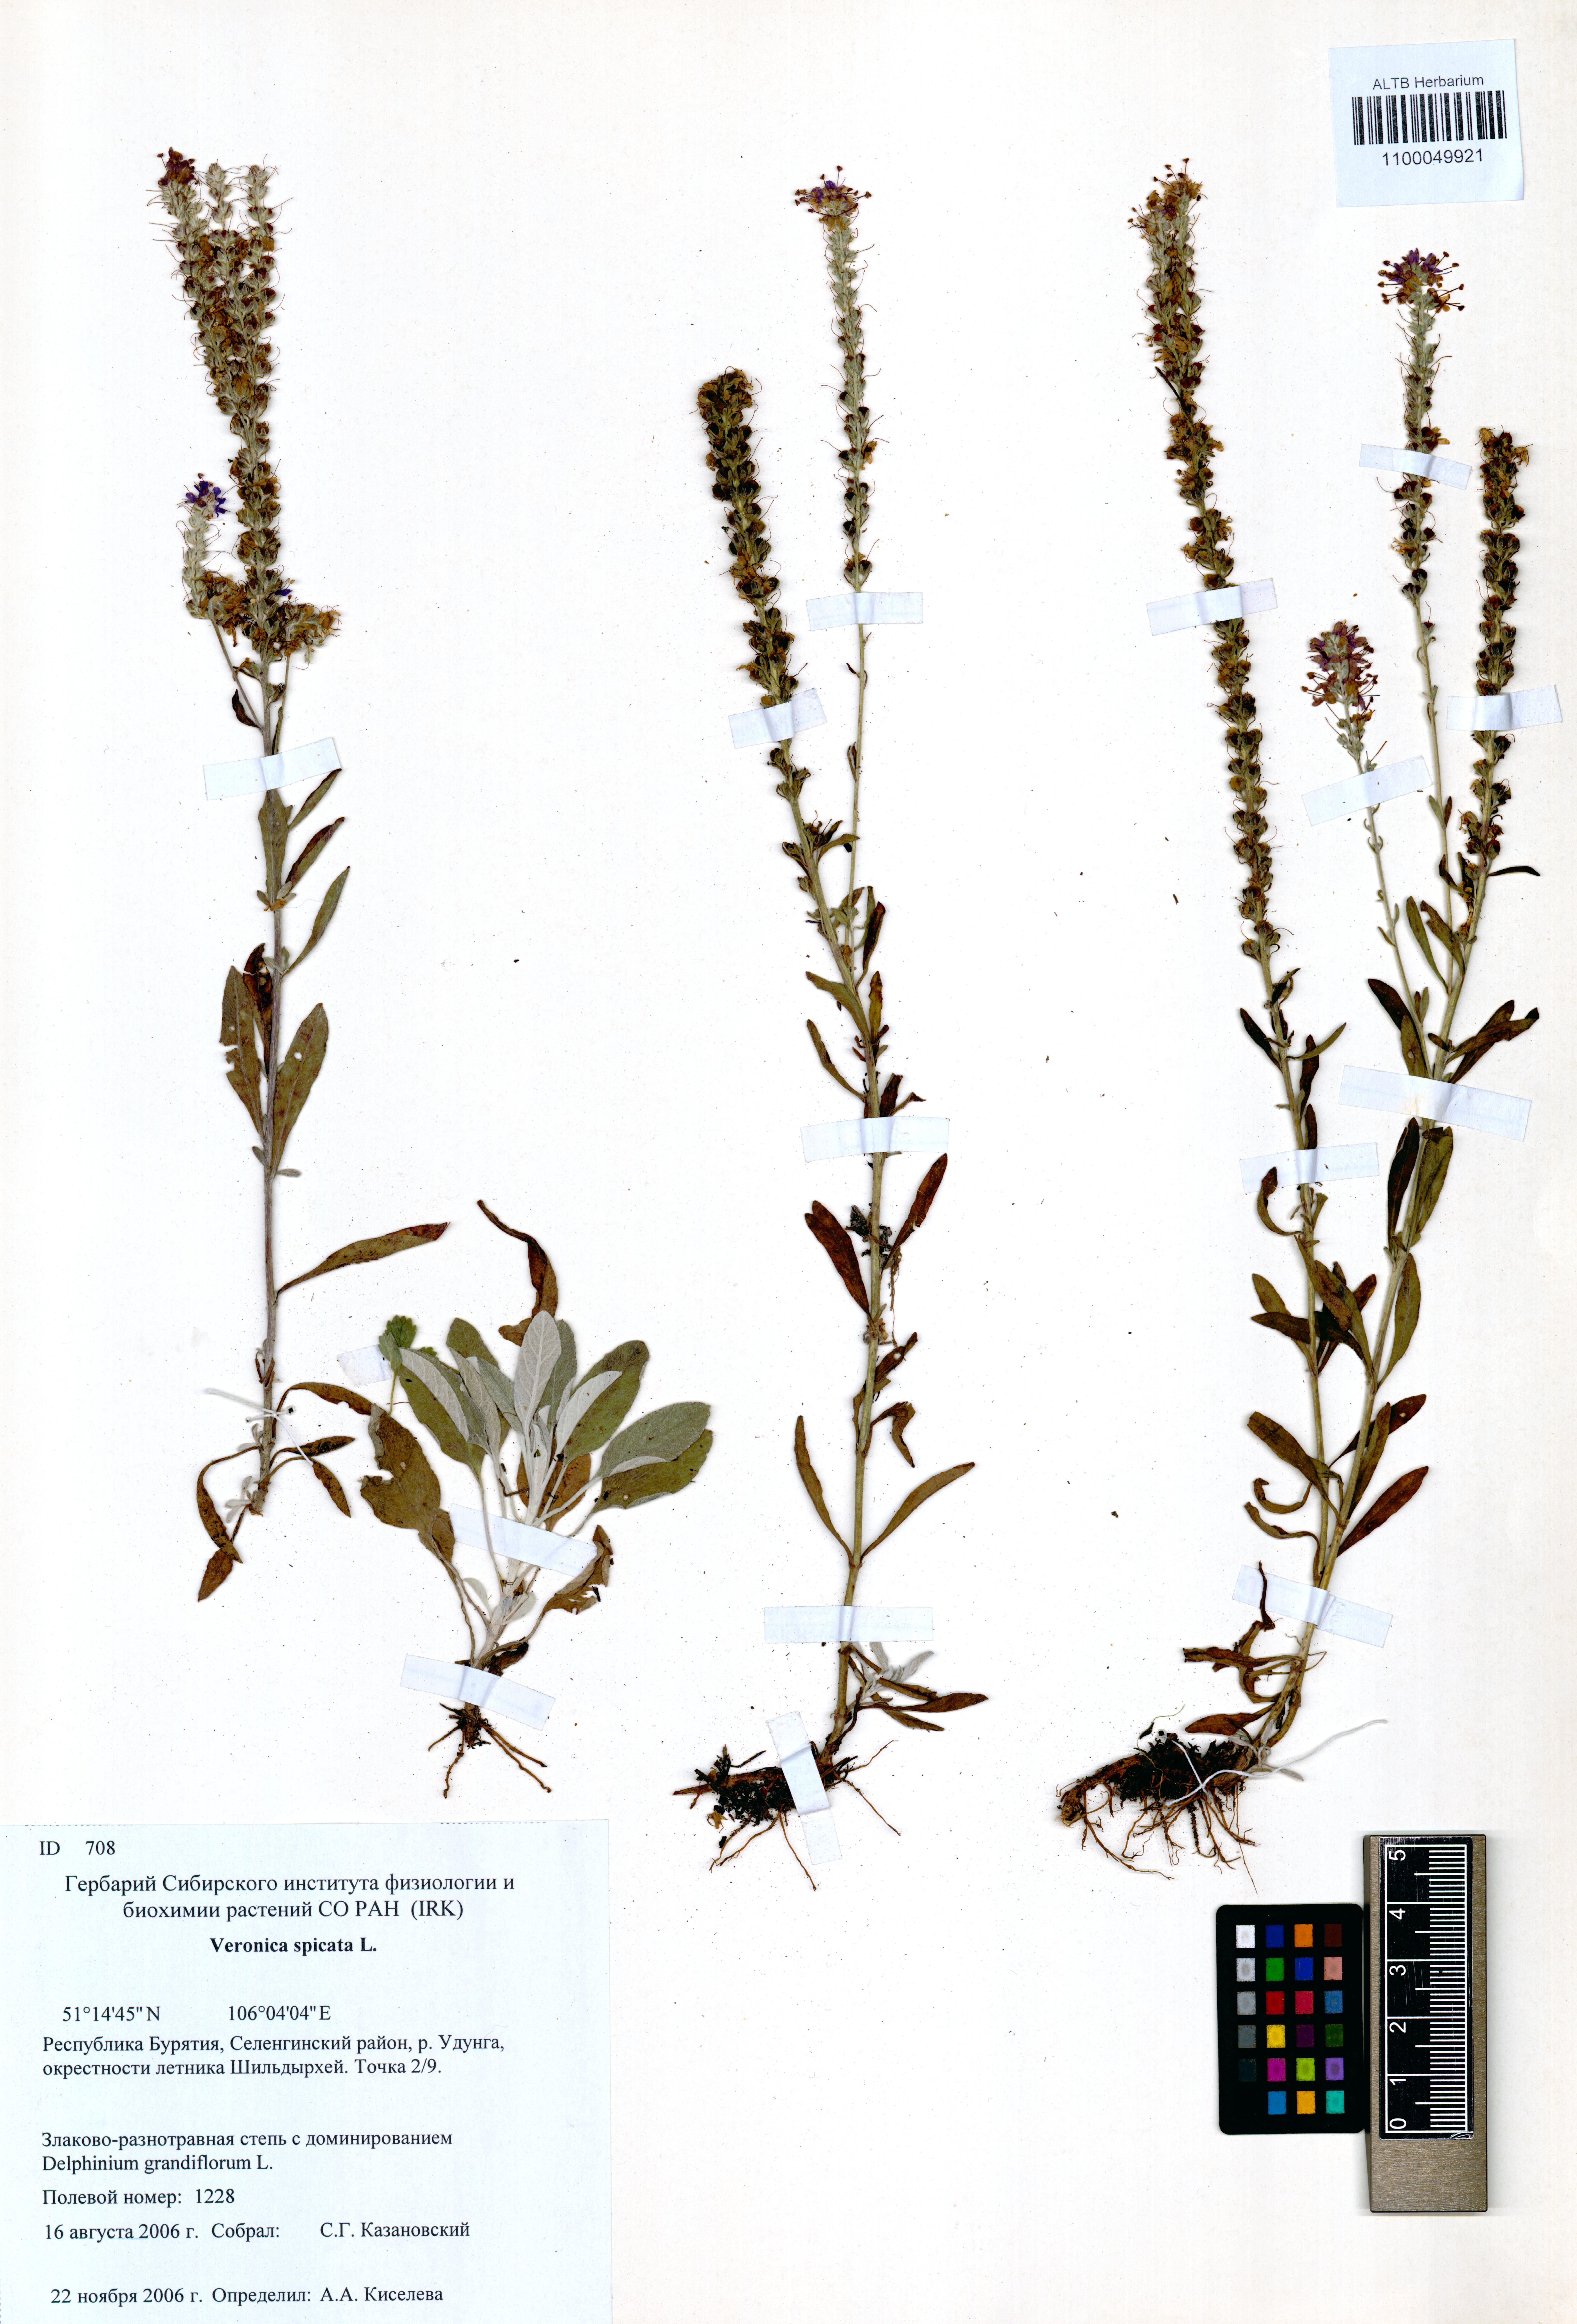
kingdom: Plantae
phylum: Tracheophyta
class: Magnoliopsida
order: Lamiales
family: Plantaginaceae
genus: Veronica
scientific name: Veronica spicata
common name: Spiked speedwell
